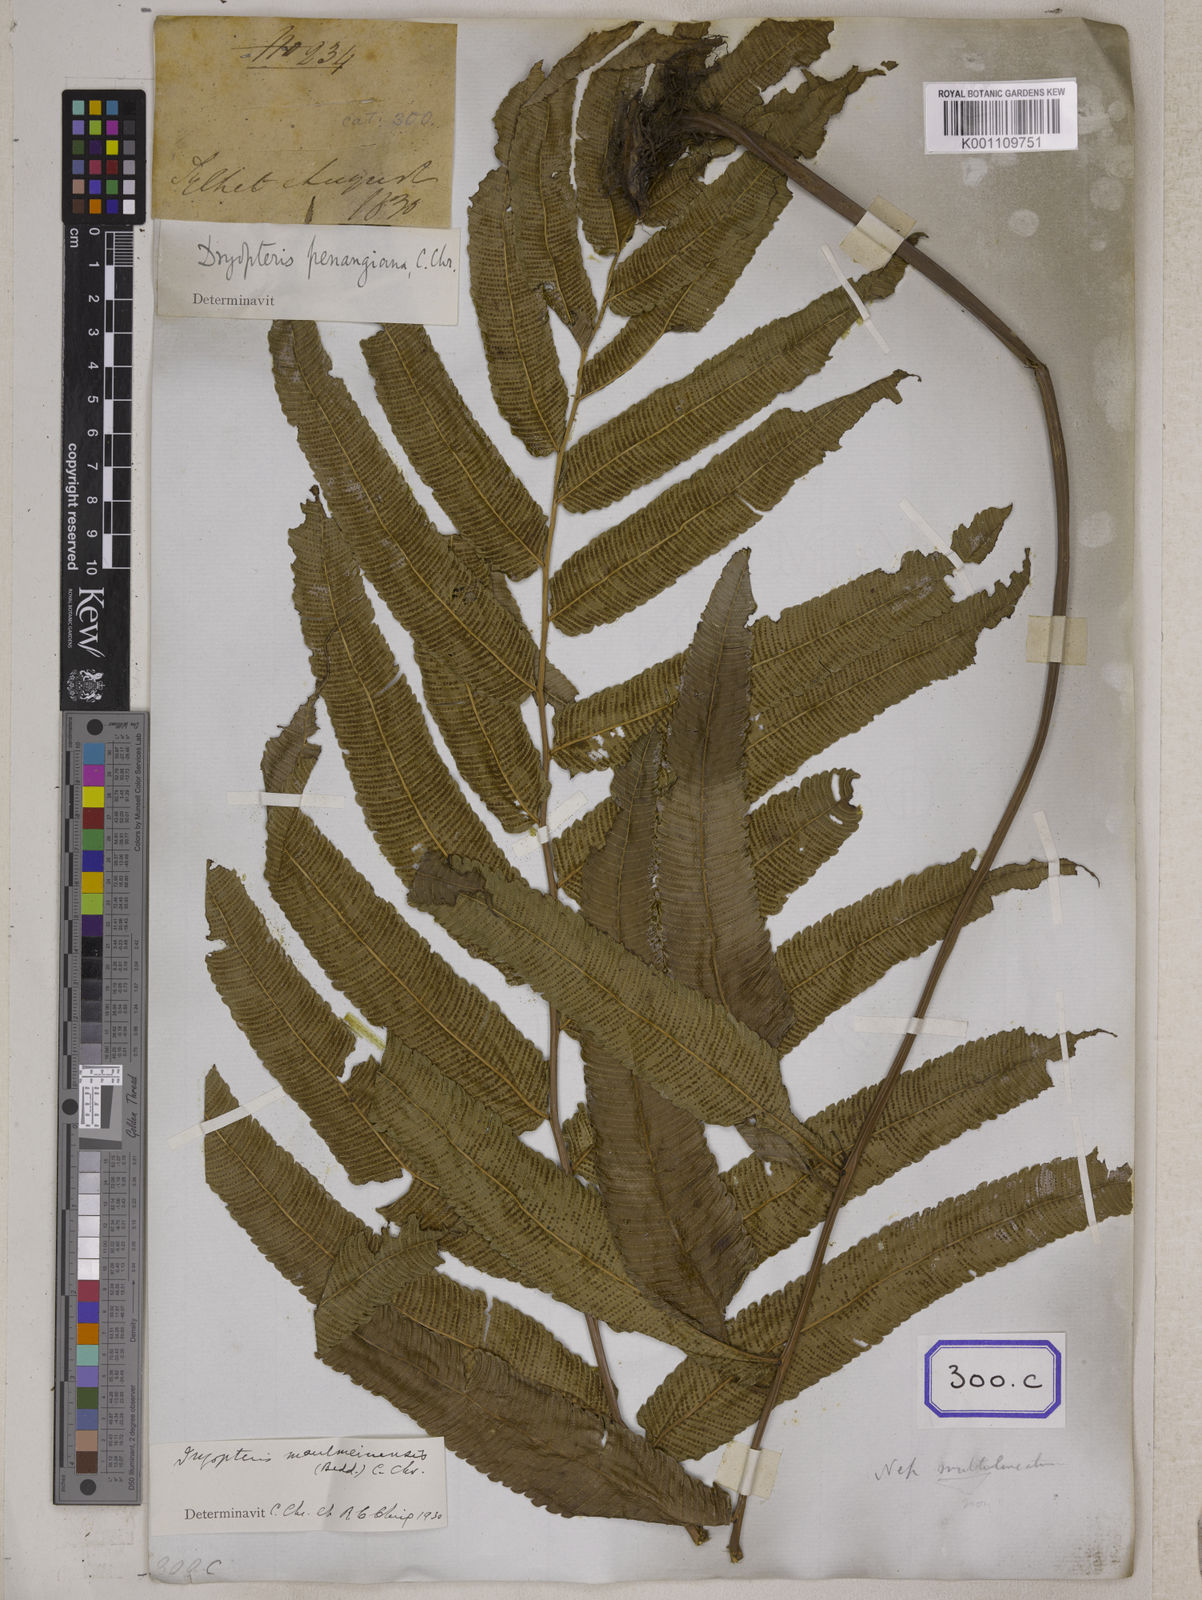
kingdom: Plantae
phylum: Tracheophyta
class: Polypodiopsida
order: Polypodiales
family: Polypodiaceae
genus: Polypodium
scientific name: Polypodium
